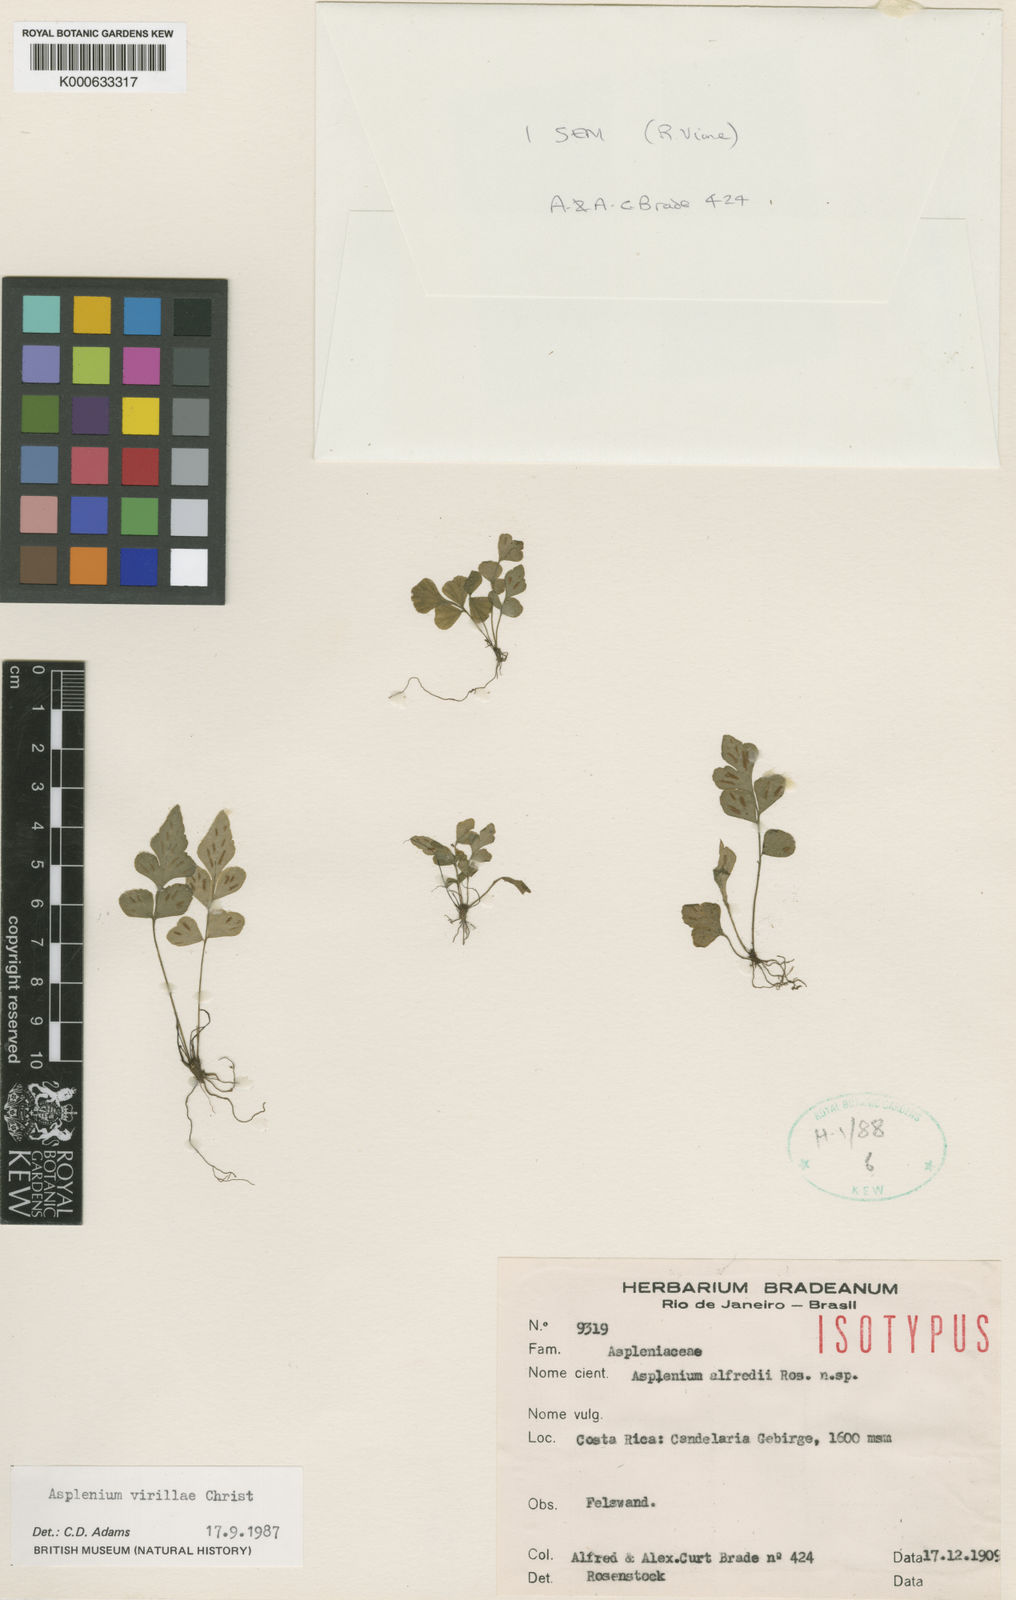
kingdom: Plantae
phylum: Tracheophyta
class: Polypodiopsida
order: Polypodiales
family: Aspleniaceae
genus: Asplenium
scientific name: Asplenium virillae
